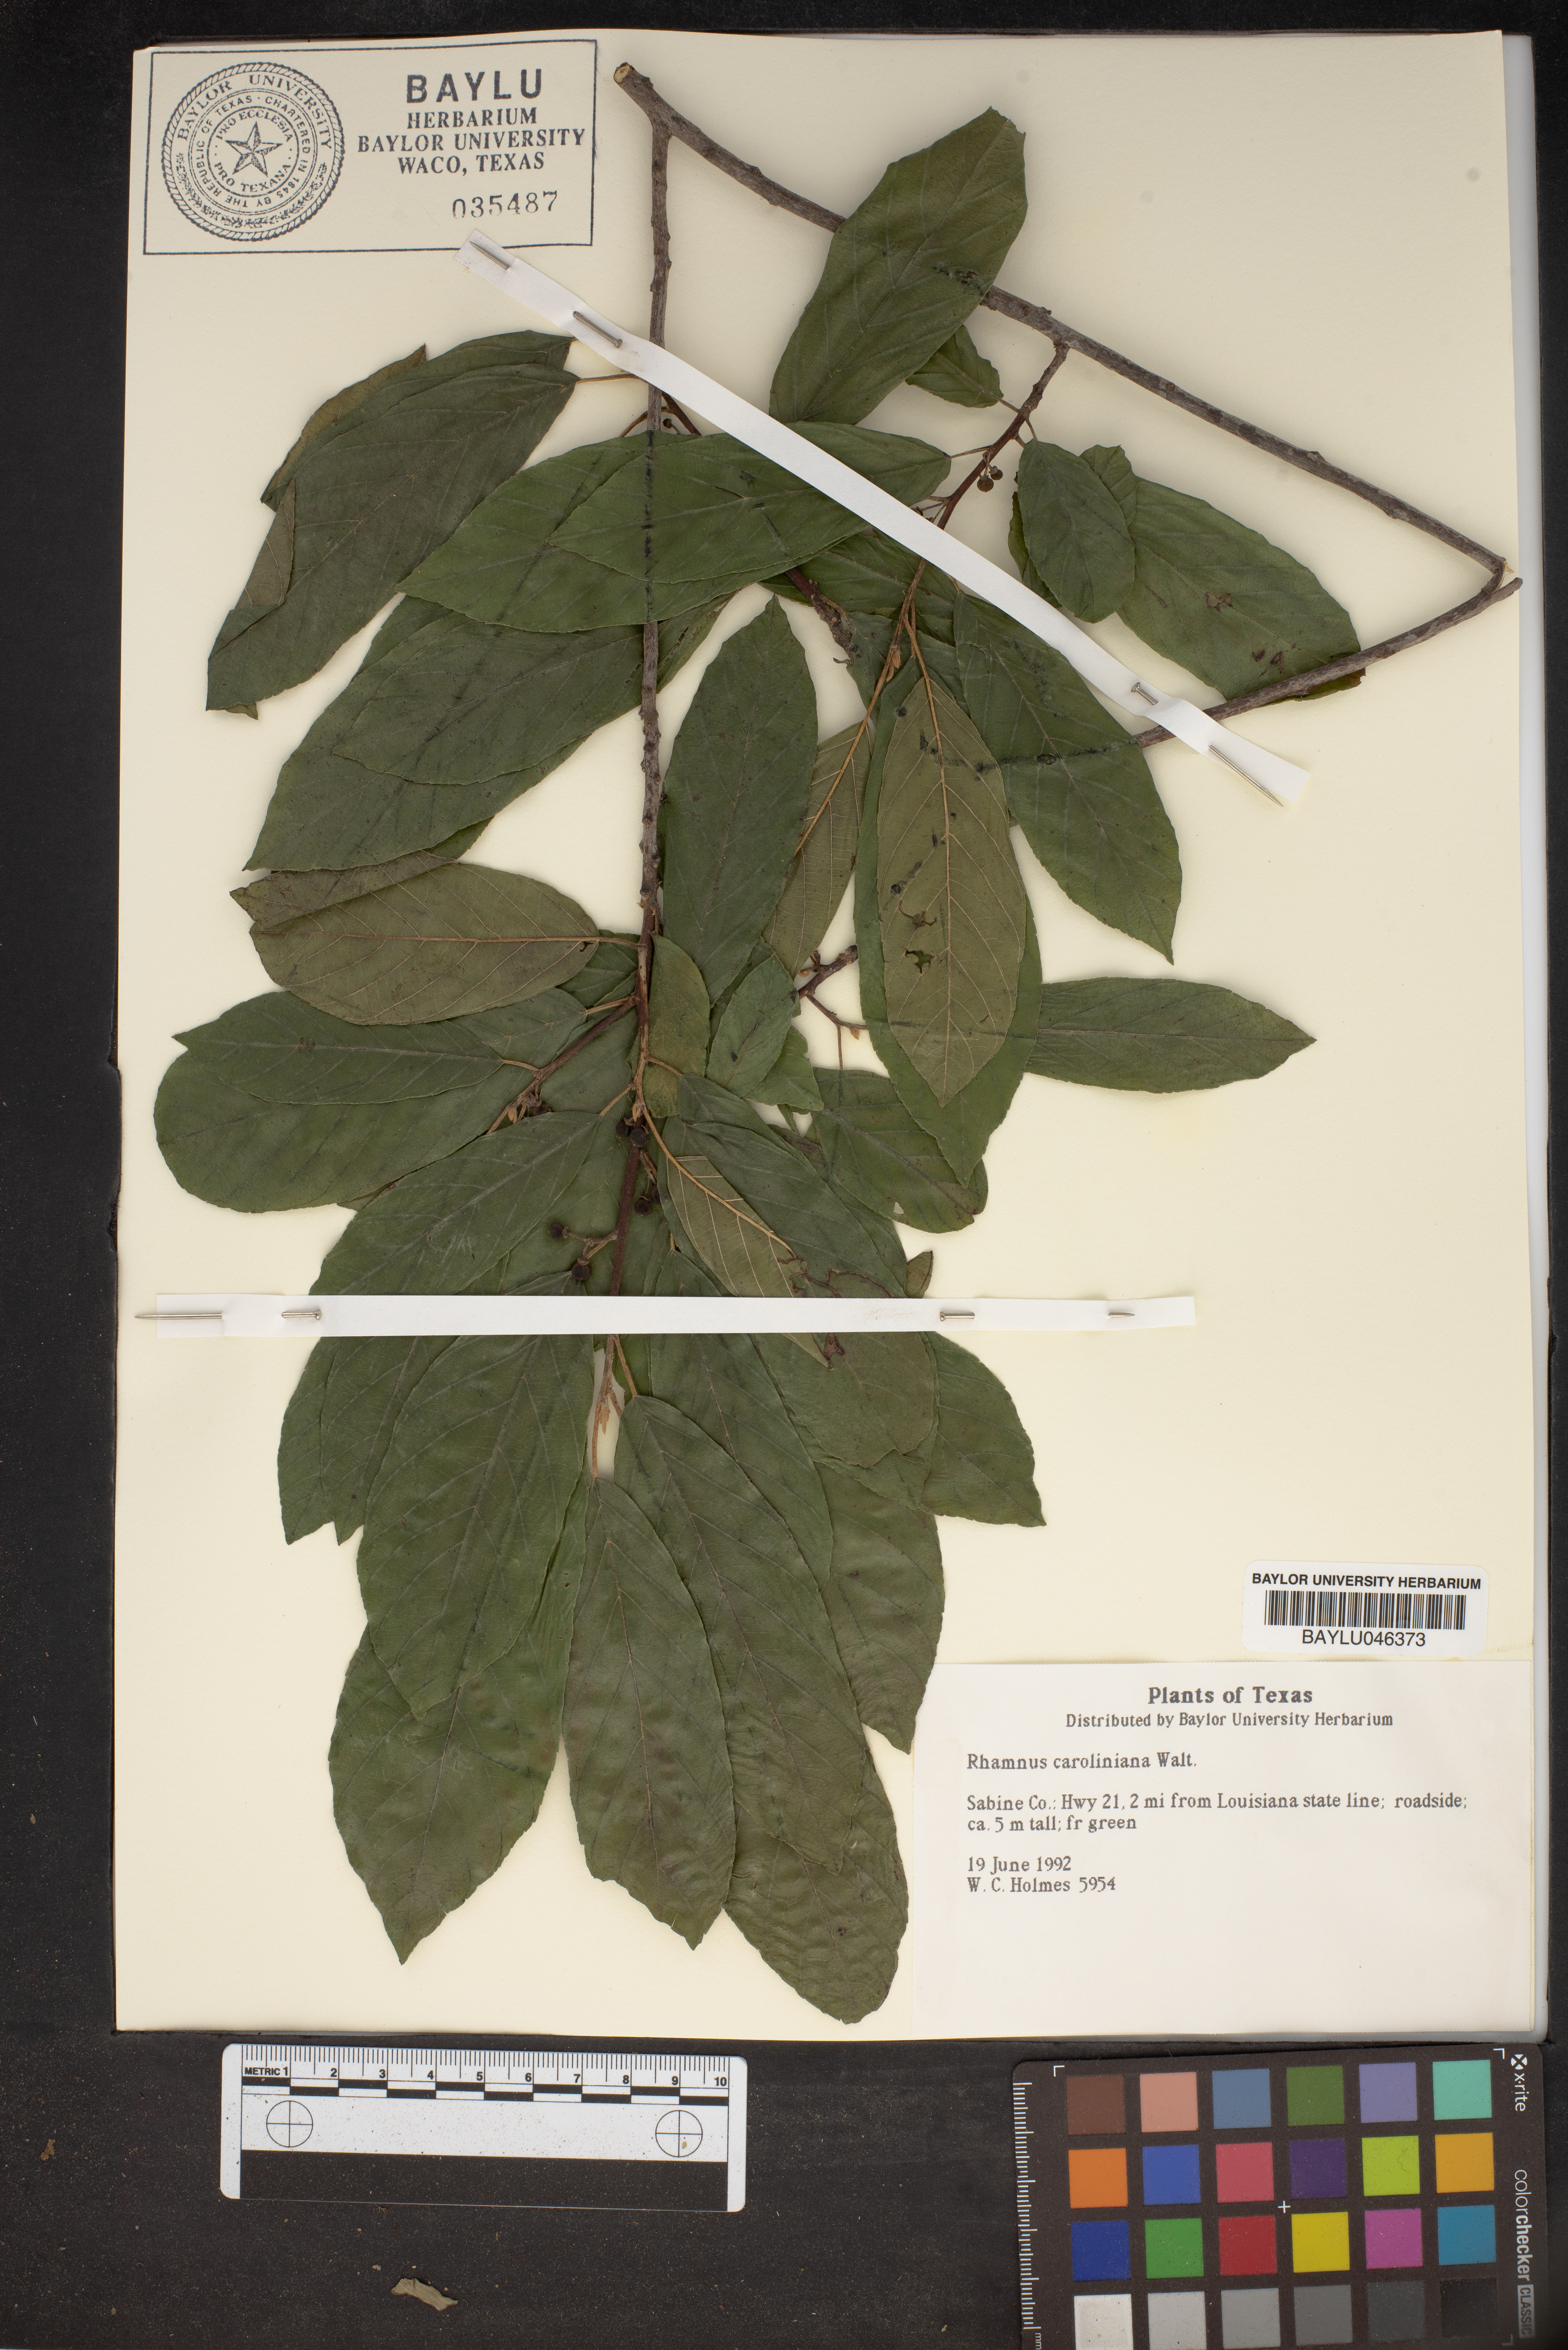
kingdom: Plantae
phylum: Tracheophyta
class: Magnoliopsida
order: Rosales
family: Rhamnaceae
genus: Frangula
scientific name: Frangula caroliniana
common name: Carolina buckthorn
